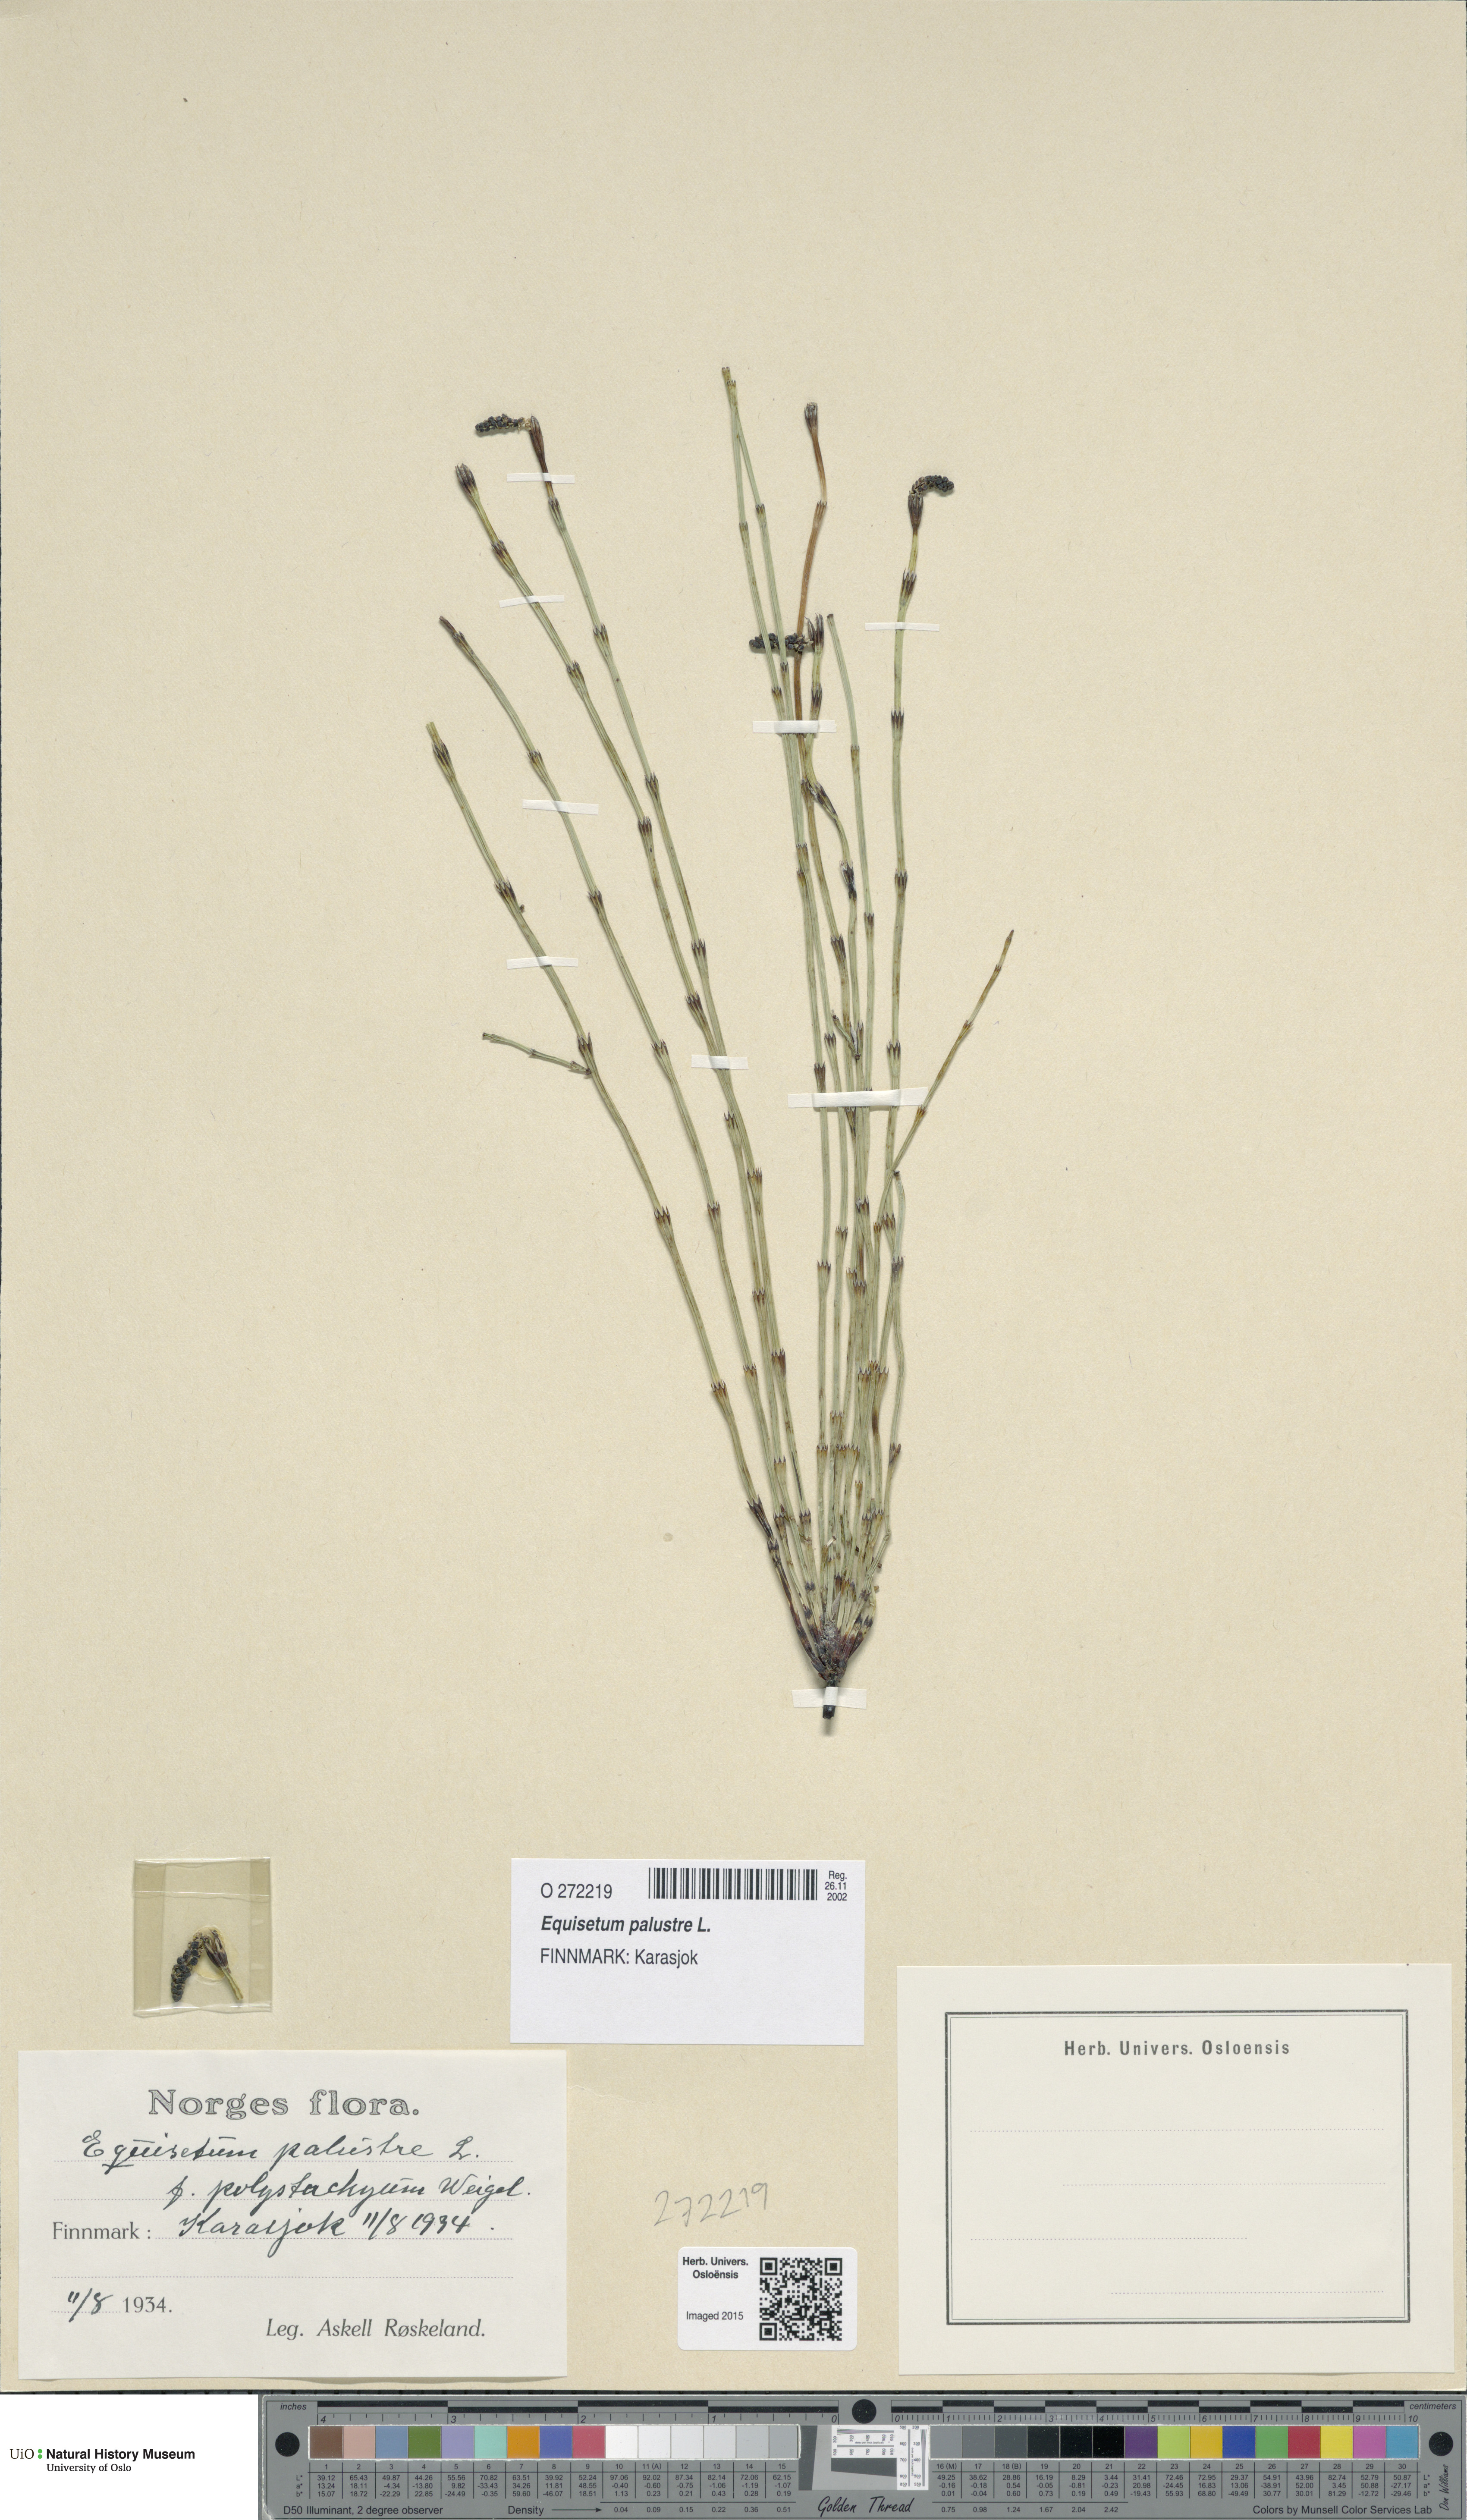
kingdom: Plantae
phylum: Tracheophyta
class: Polypodiopsida
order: Equisetales
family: Equisetaceae
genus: Equisetum
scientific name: Equisetum palustre
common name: Marsh horsetail
